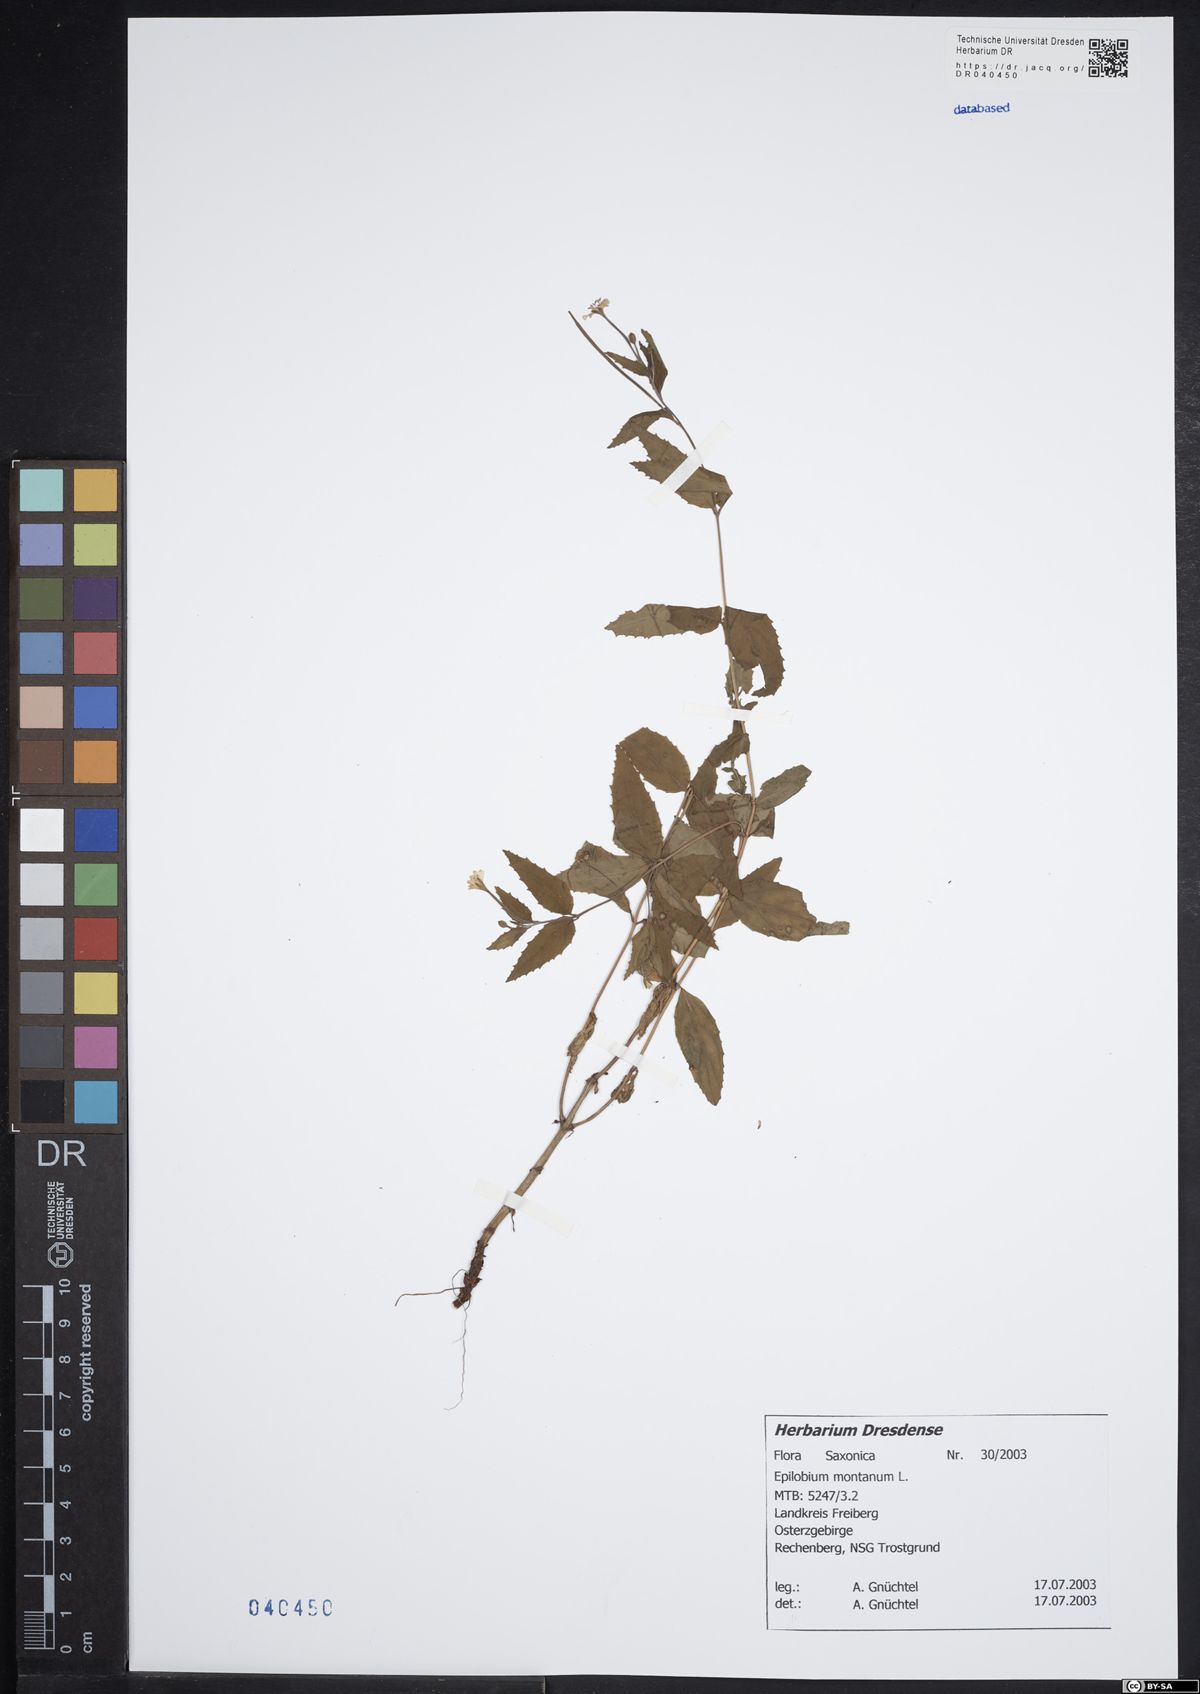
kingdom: Plantae
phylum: Tracheophyta
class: Magnoliopsida
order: Myrtales
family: Onagraceae
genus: Epilobium
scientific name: Epilobium montanum
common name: Broad-leaved willowherb
